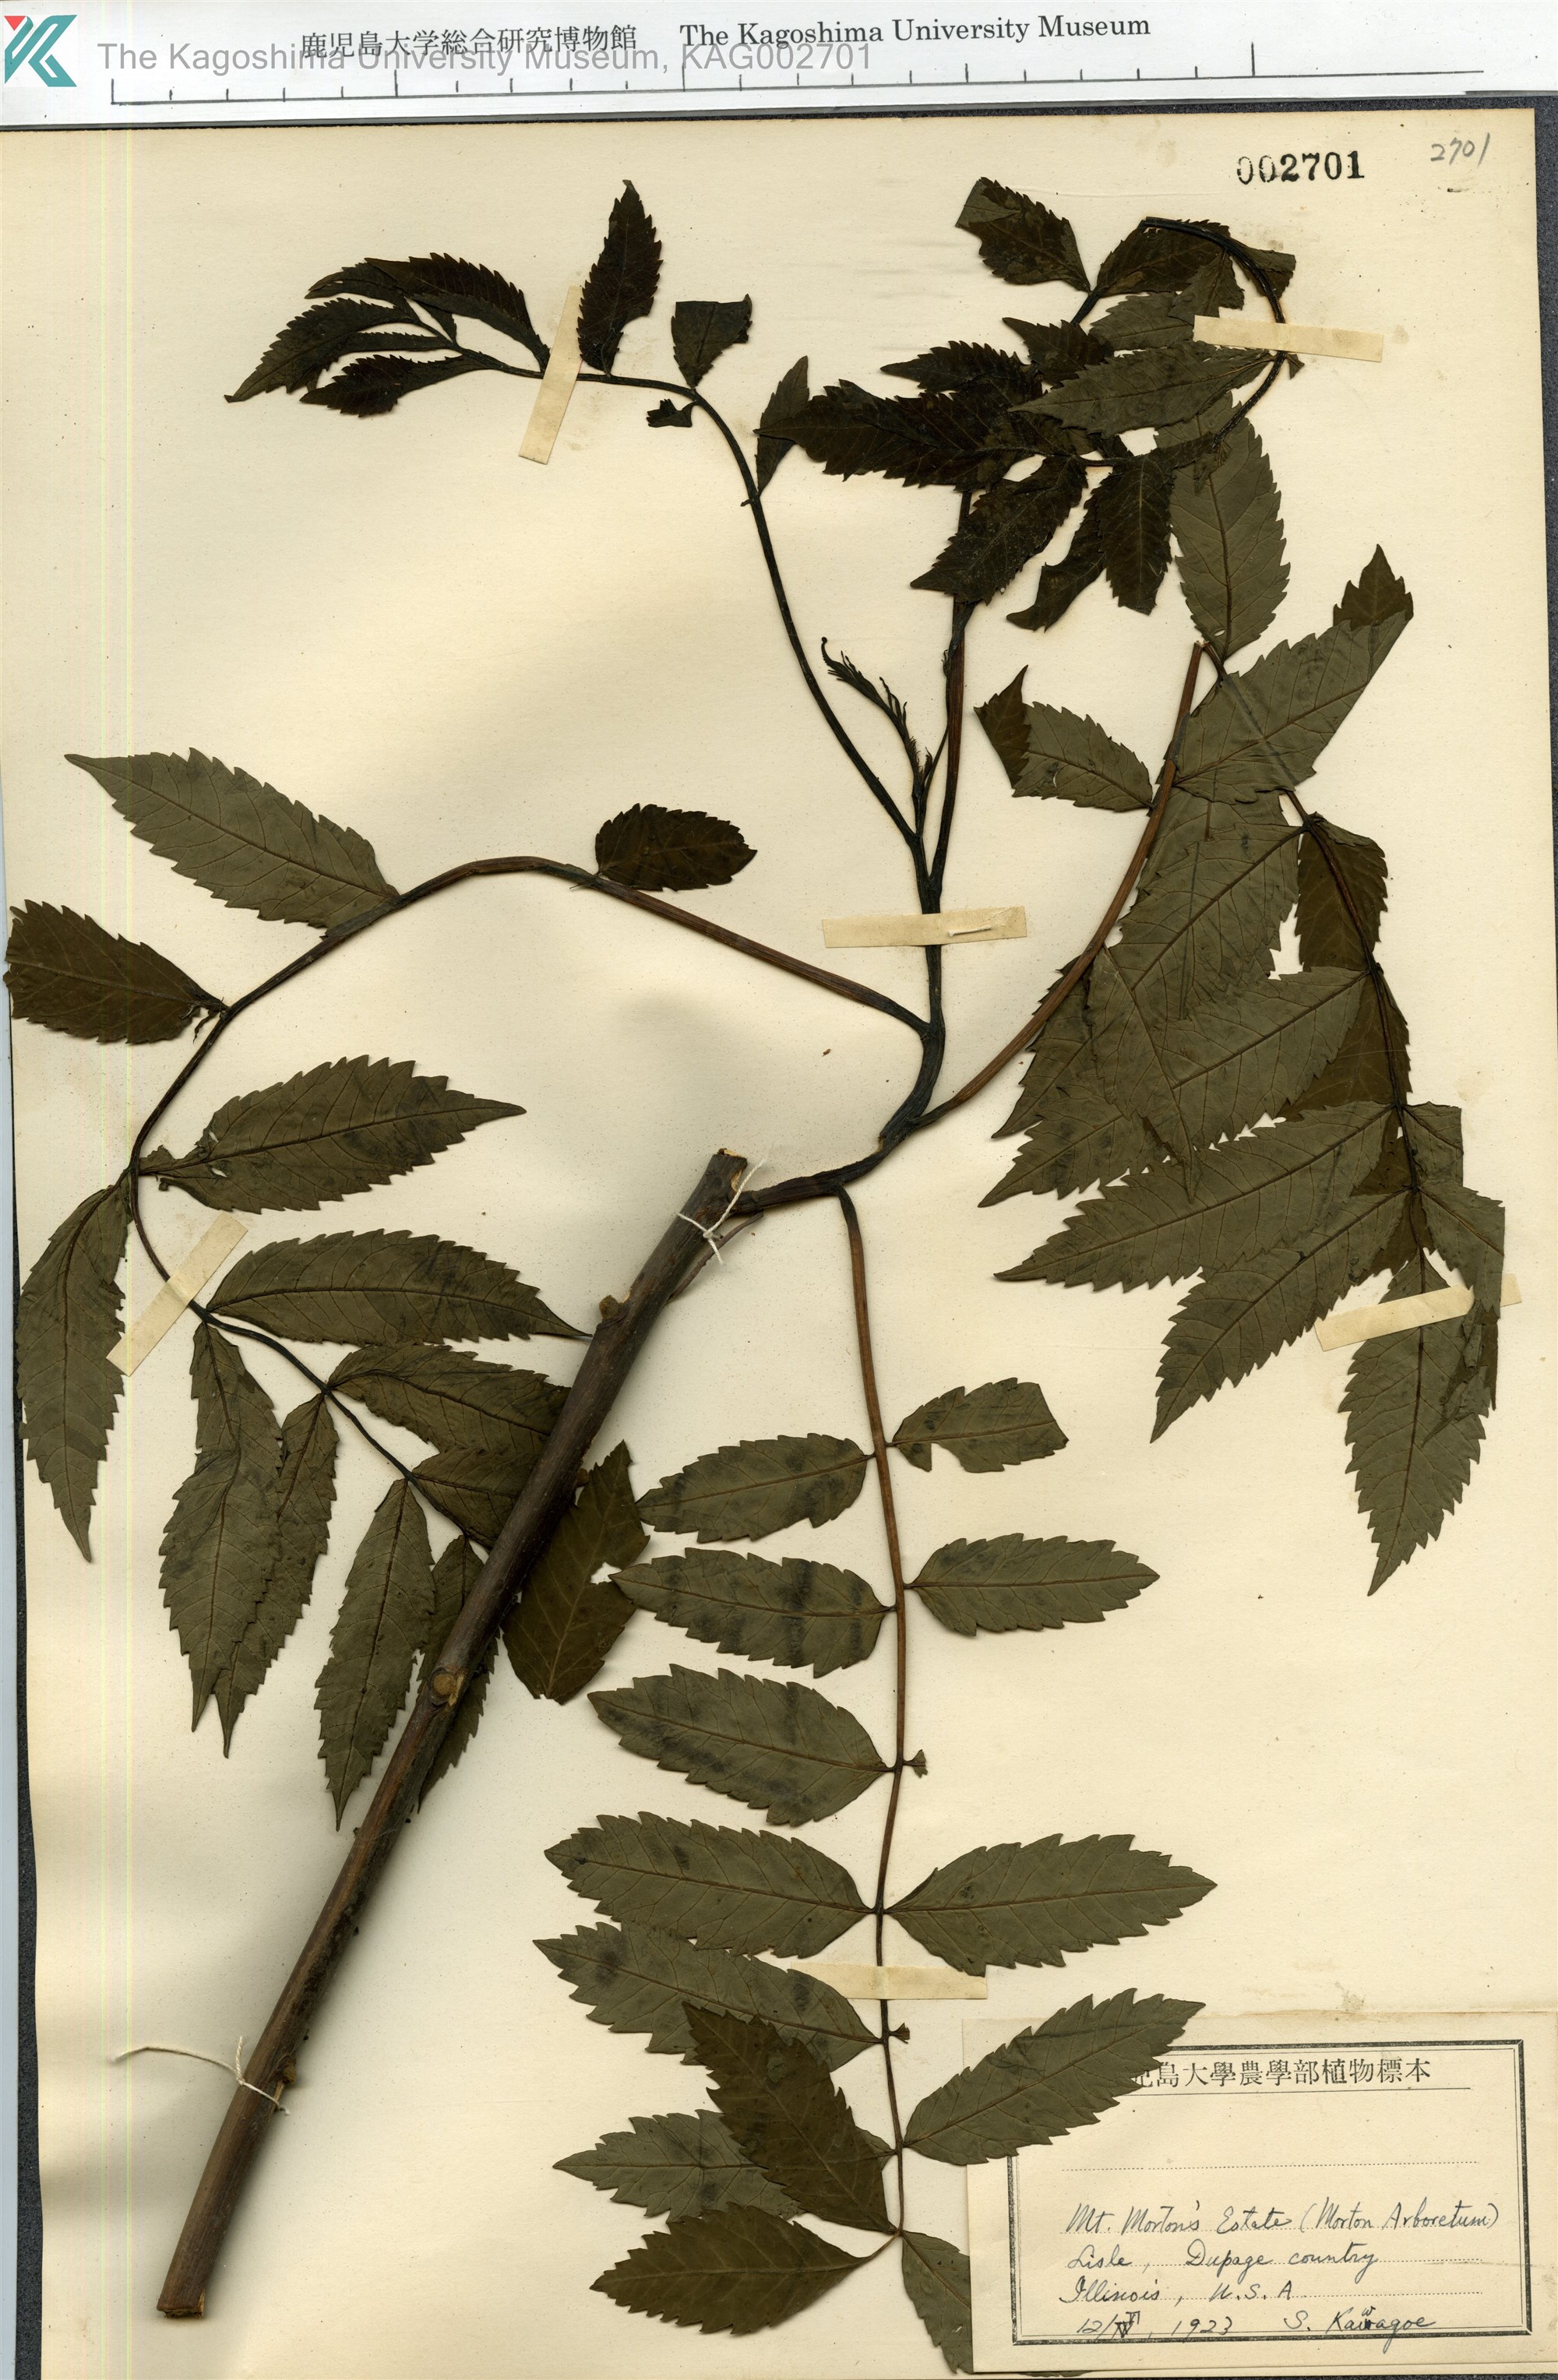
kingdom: Plantae
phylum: Tracheophyta
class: Magnoliopsida
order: Sapindales
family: Anacardiaceae
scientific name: Anacardiaceae
